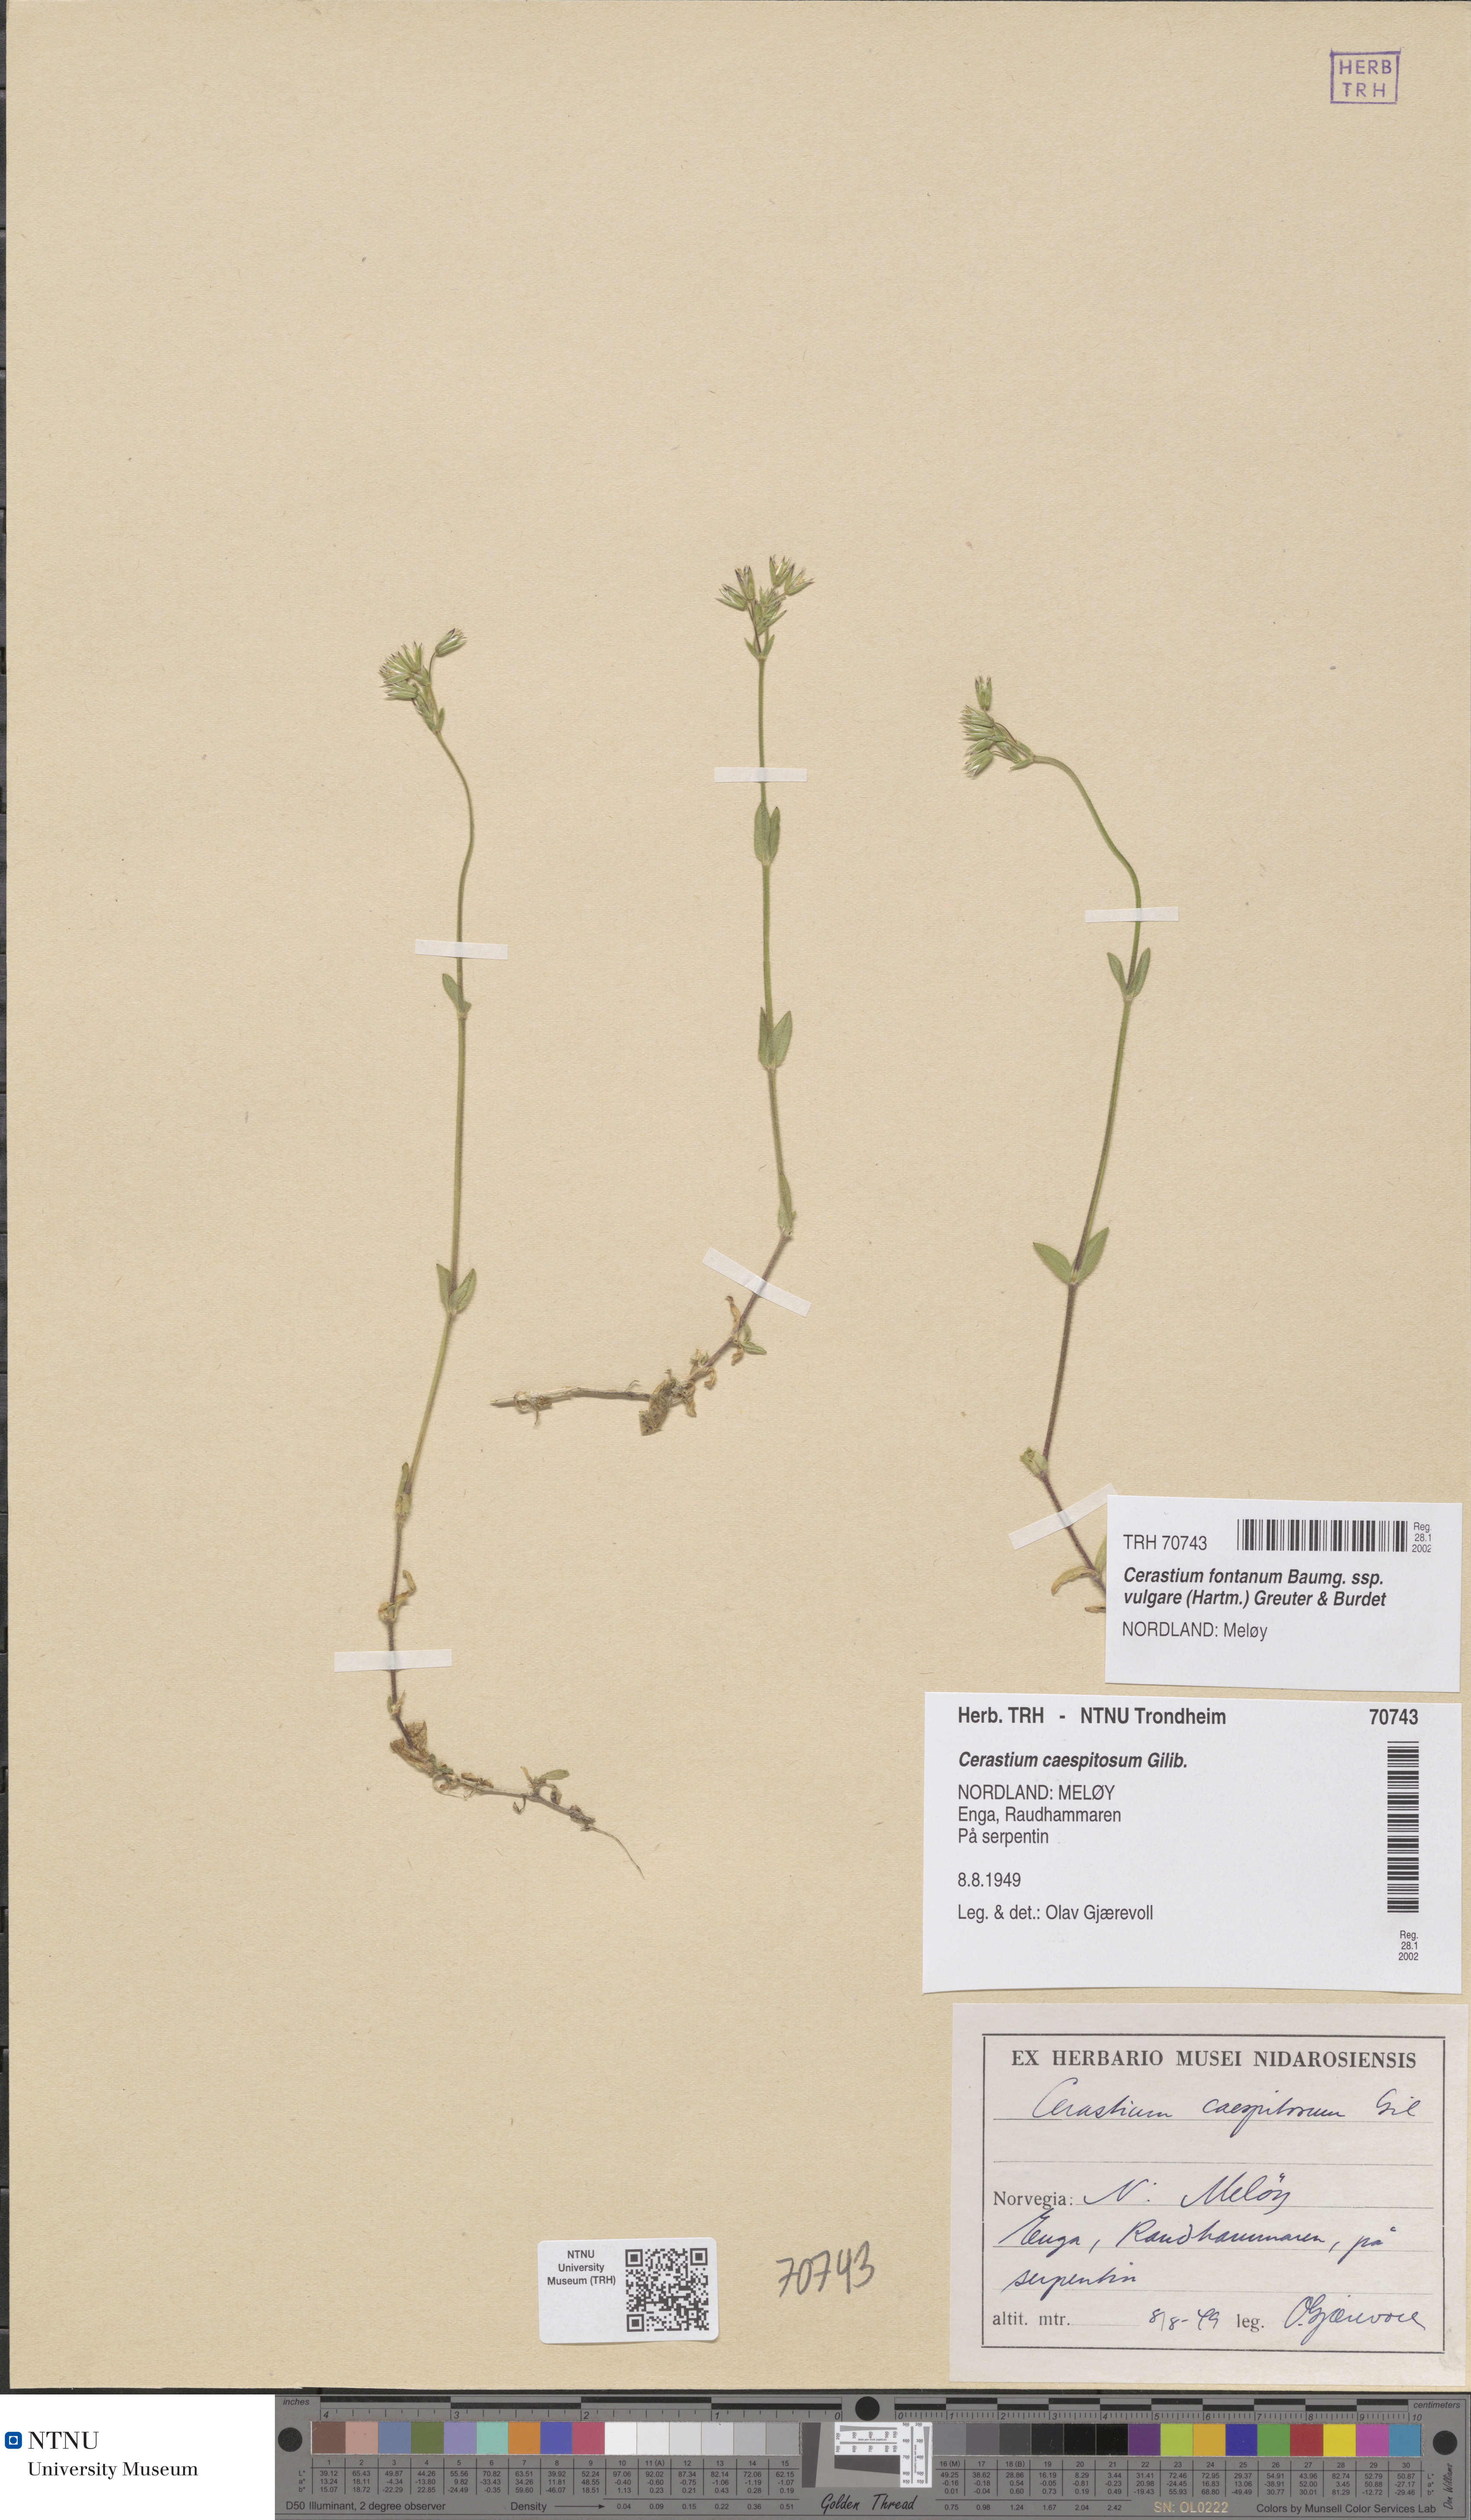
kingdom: Plantae
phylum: Tracheophyta
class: Magnoliopsida
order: Caryophyllales
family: Caryophyllaceae
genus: Cerastium
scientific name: Cerastium holosteoides
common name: Big chickweed
